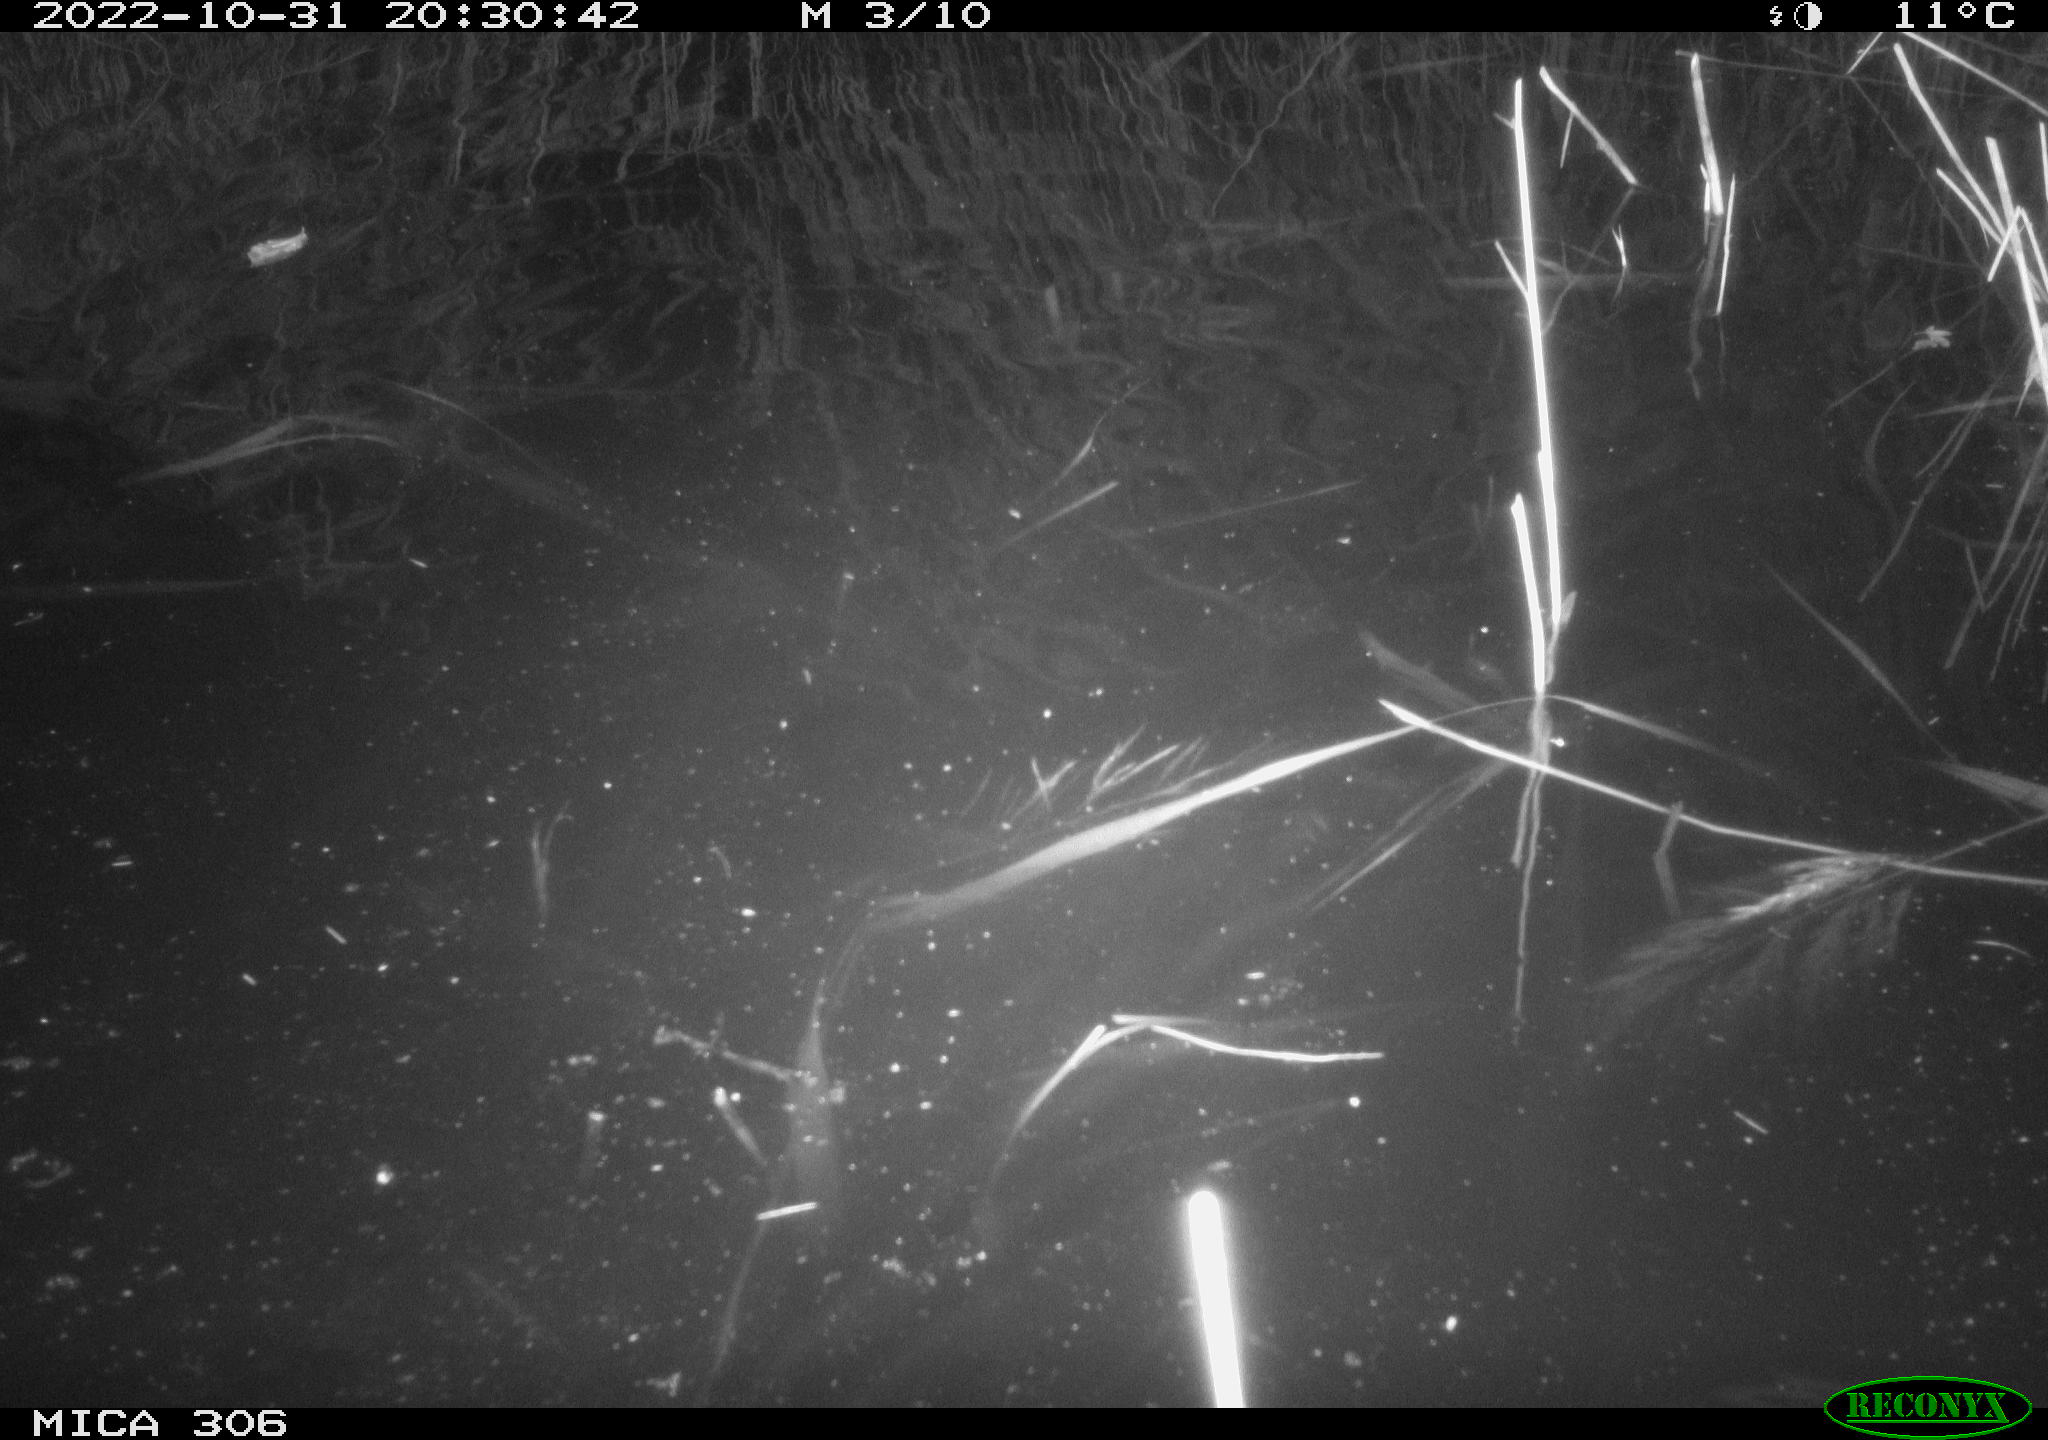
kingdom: Animalia
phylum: Chordata
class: Mammalia
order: Rodentia
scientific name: Rodentia
